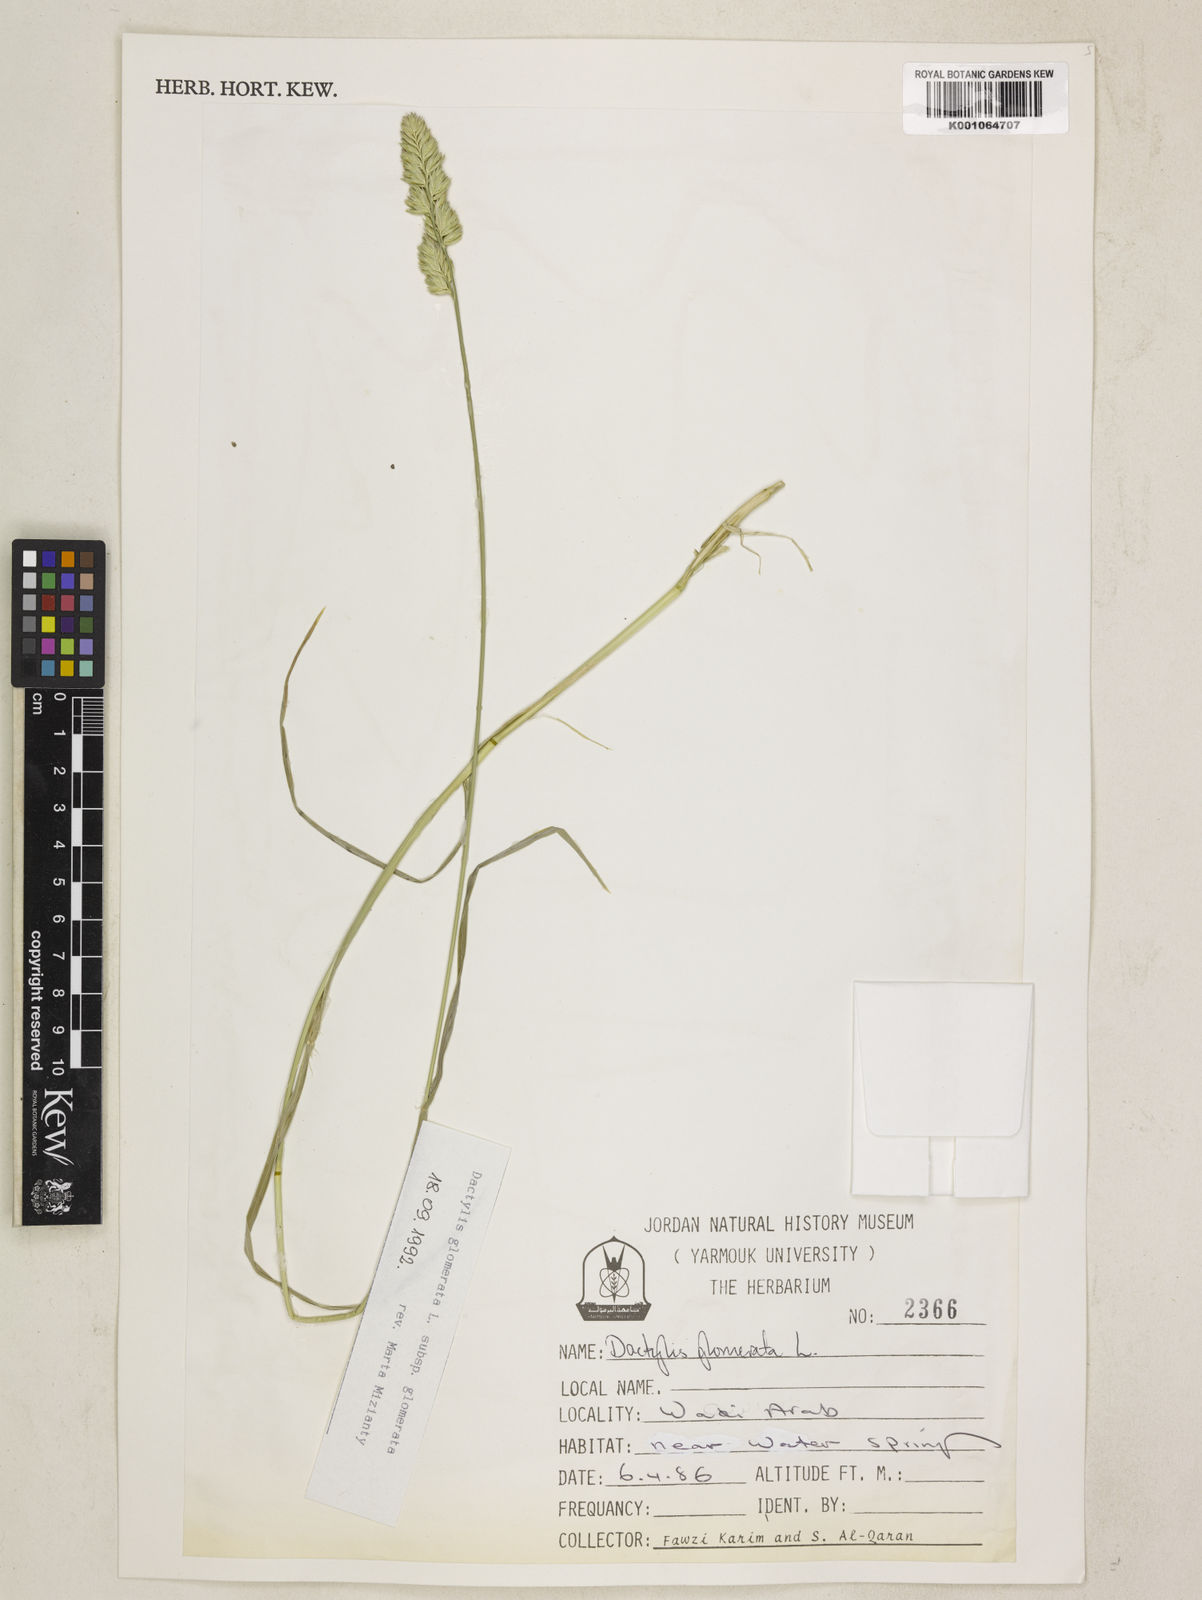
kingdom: Plantae
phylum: Tracheophyta
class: Liliopsida
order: Poales
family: Poaceae
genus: Dactylis
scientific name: Dactylis glomerata
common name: Orchardgrass
